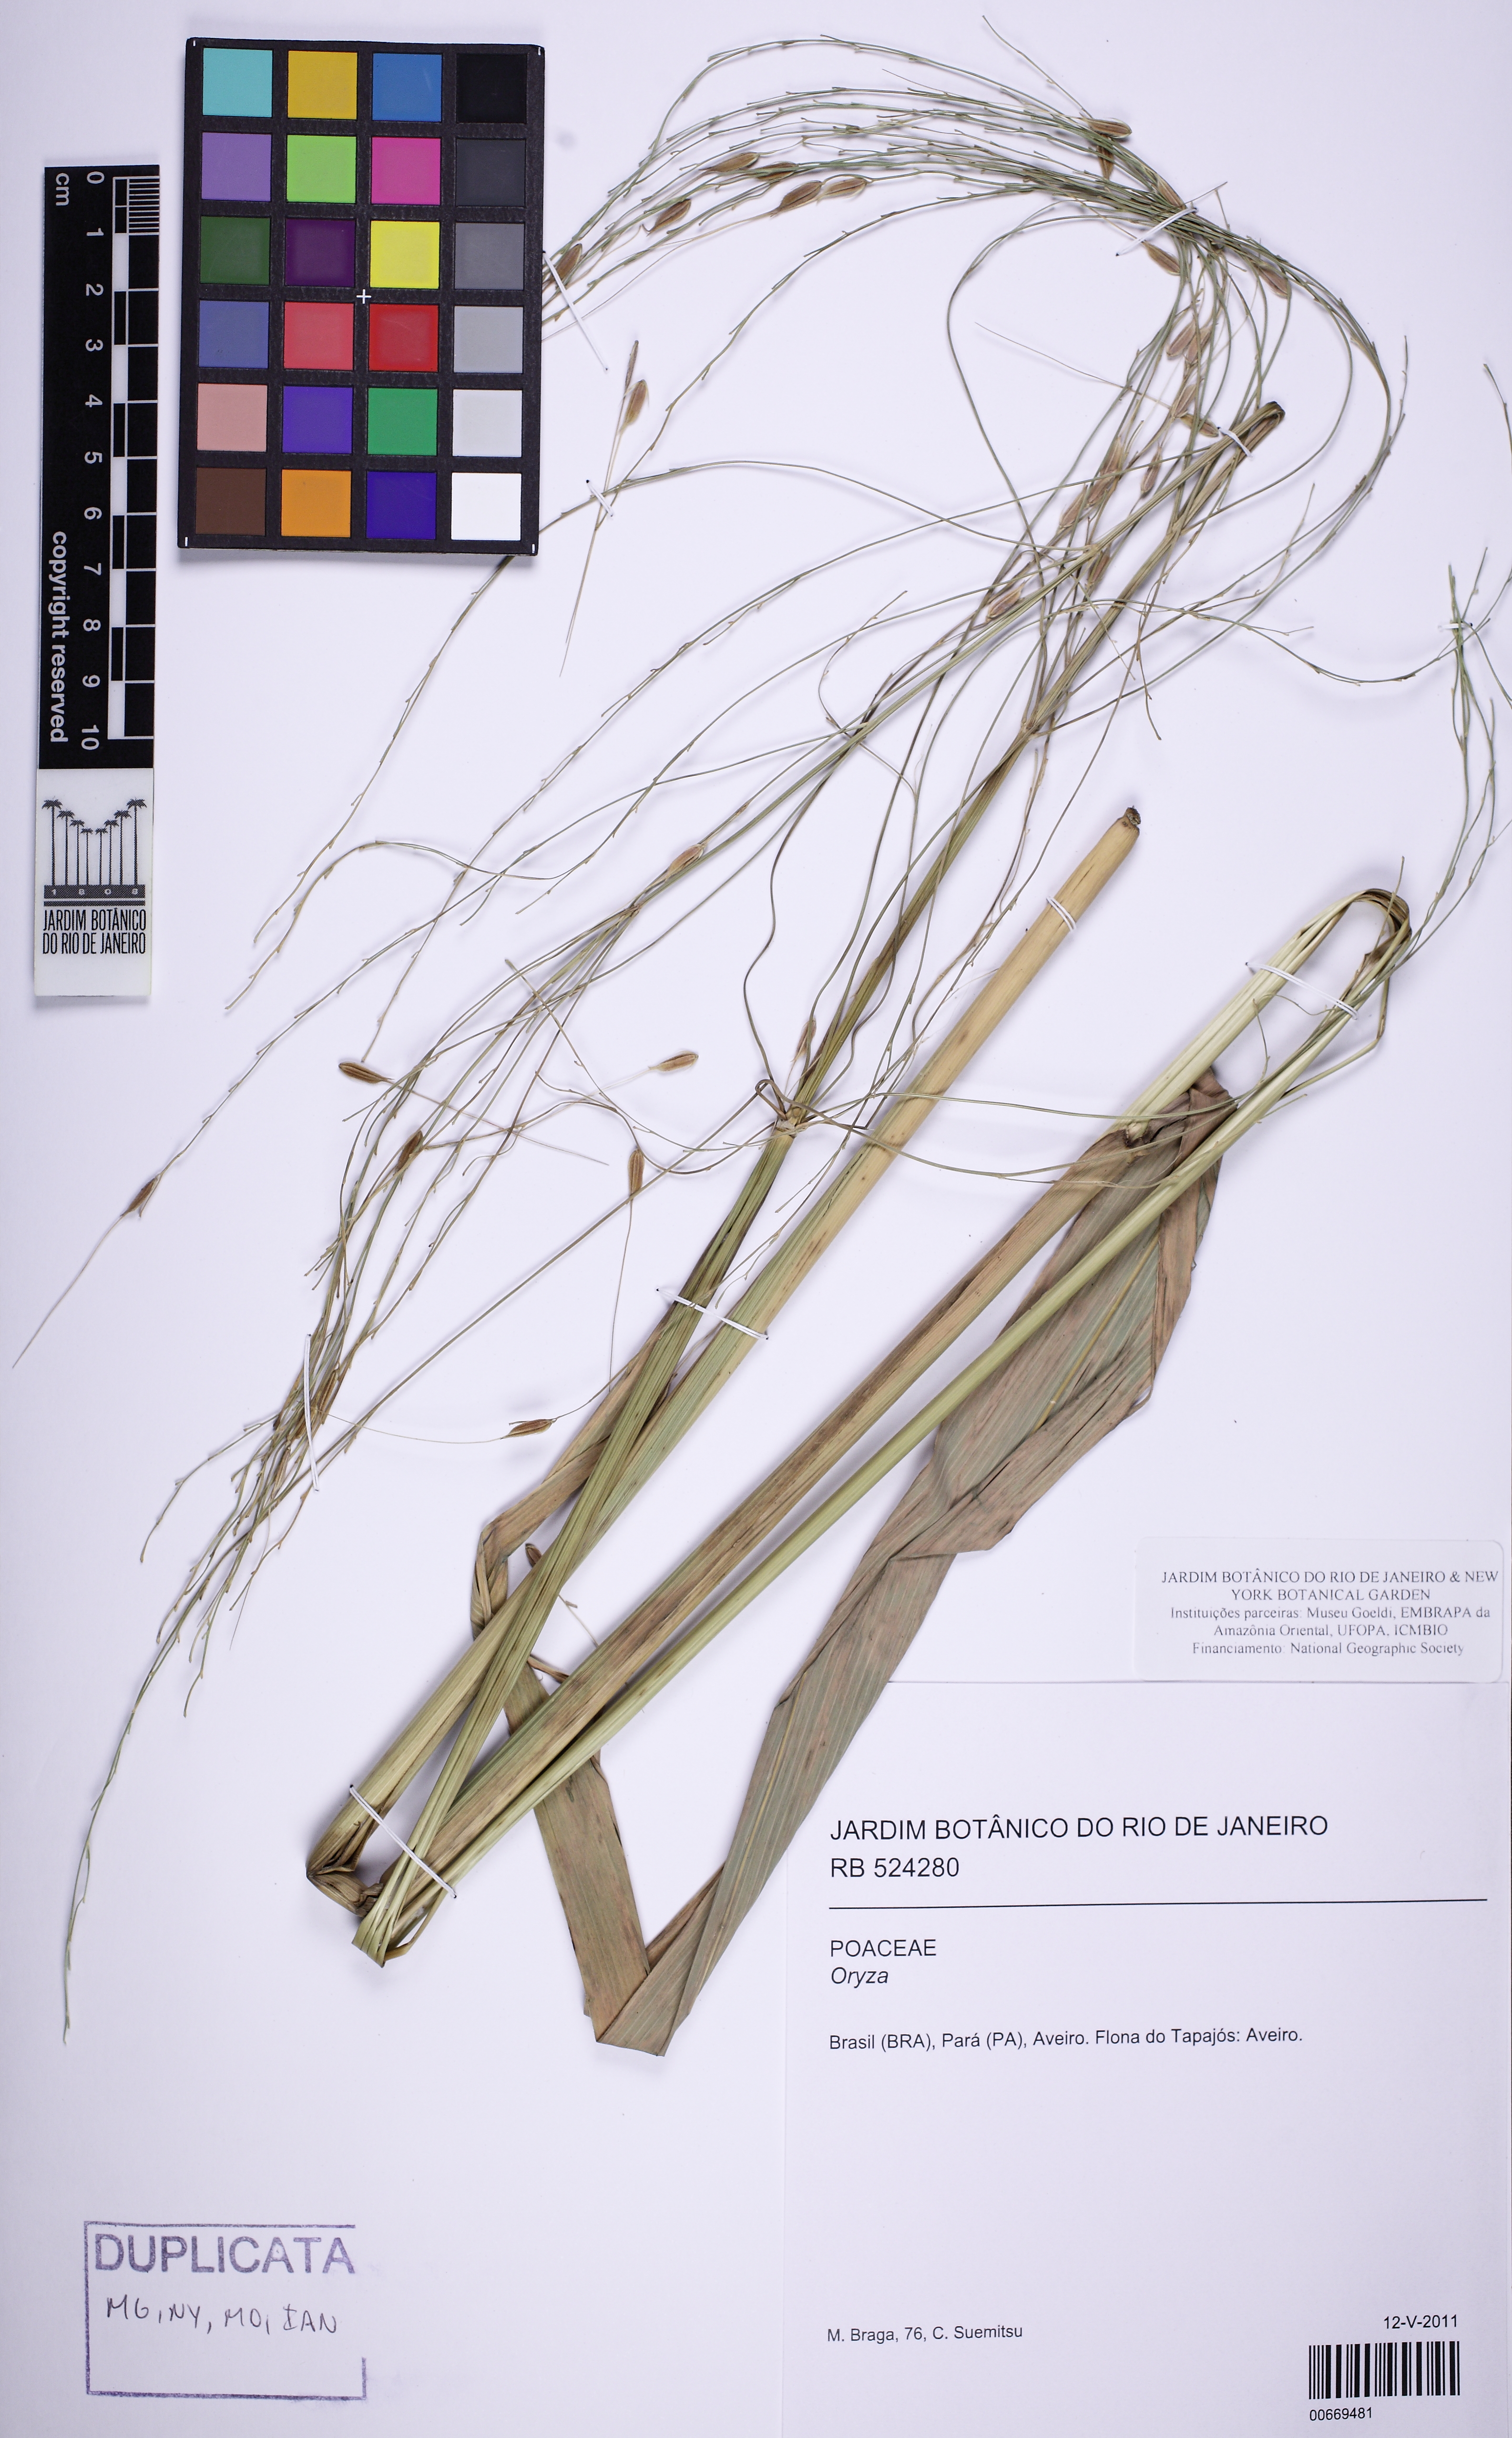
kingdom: Plantae
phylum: Tracheophyta
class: Liliopsida
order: Poales
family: Poaceae
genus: Oryza
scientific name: Oryza
